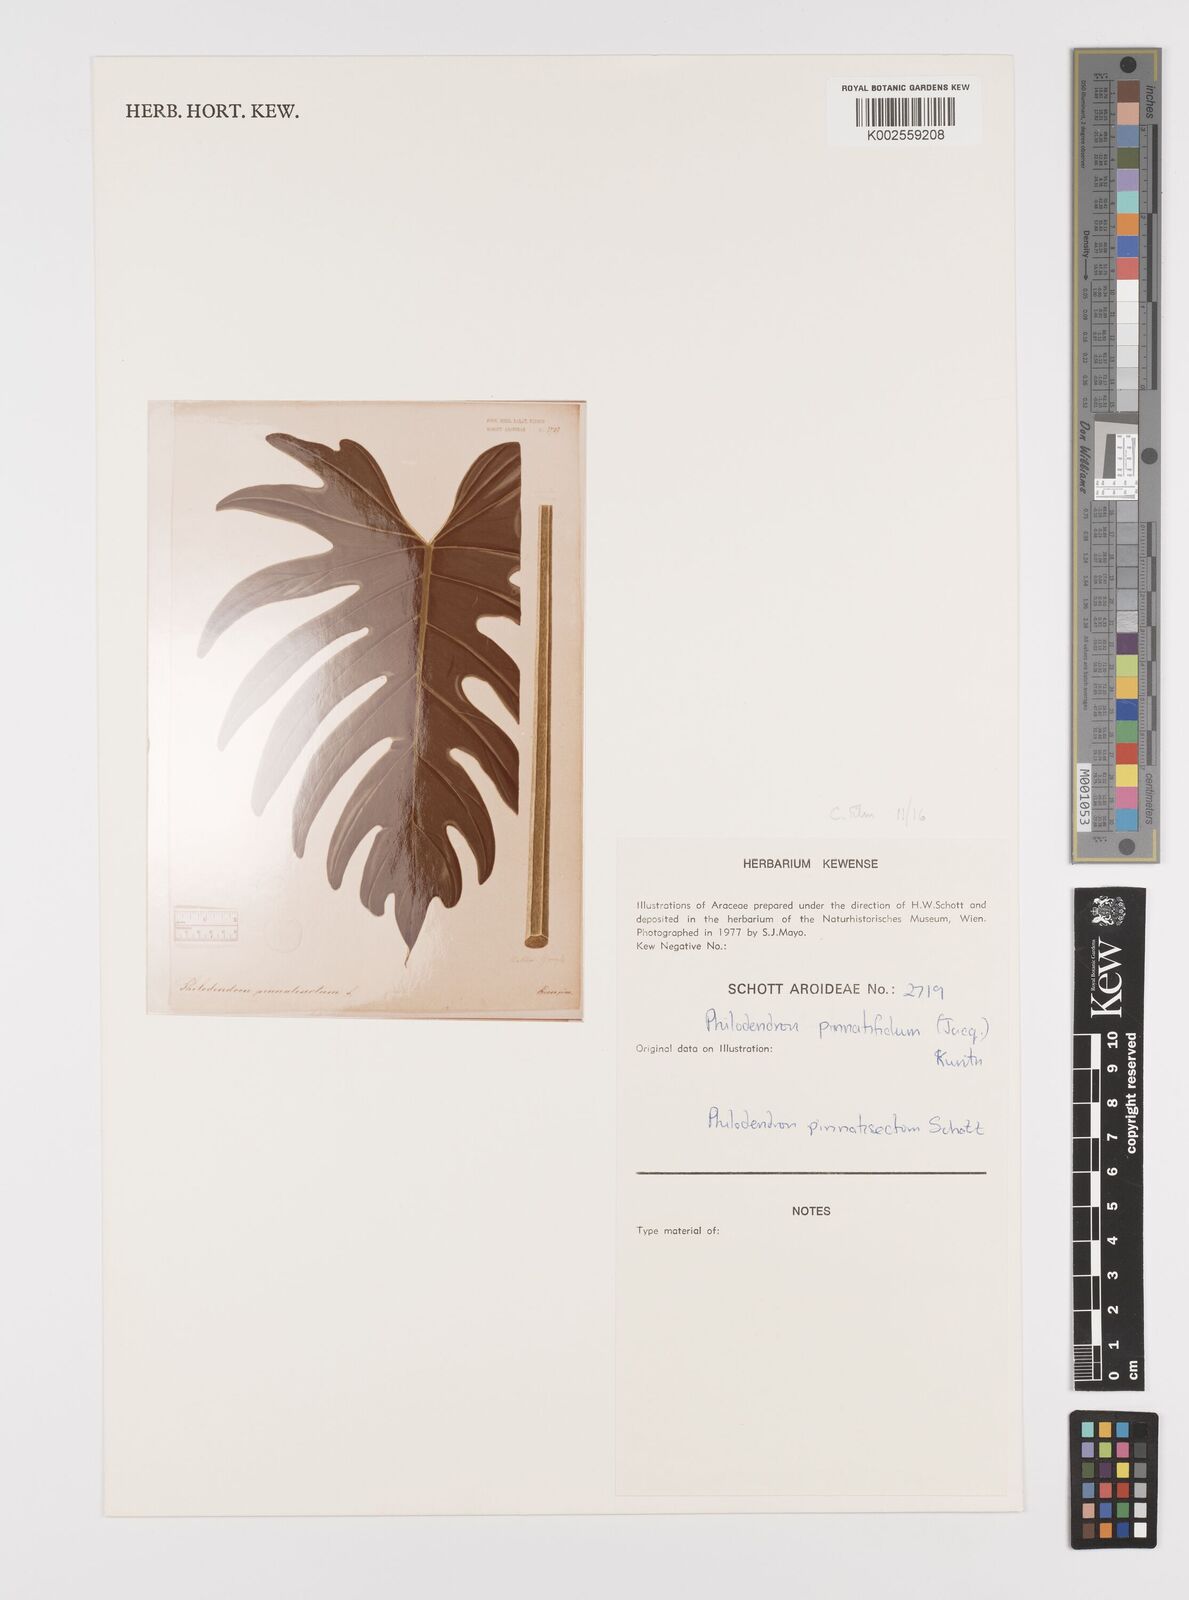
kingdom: Plantae
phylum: Tracheophyta
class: Liliopsida
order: Alismatales
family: Araceae
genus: Philodendron
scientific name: Philodendron pinnatifidum
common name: Comb-leaf philodendron
